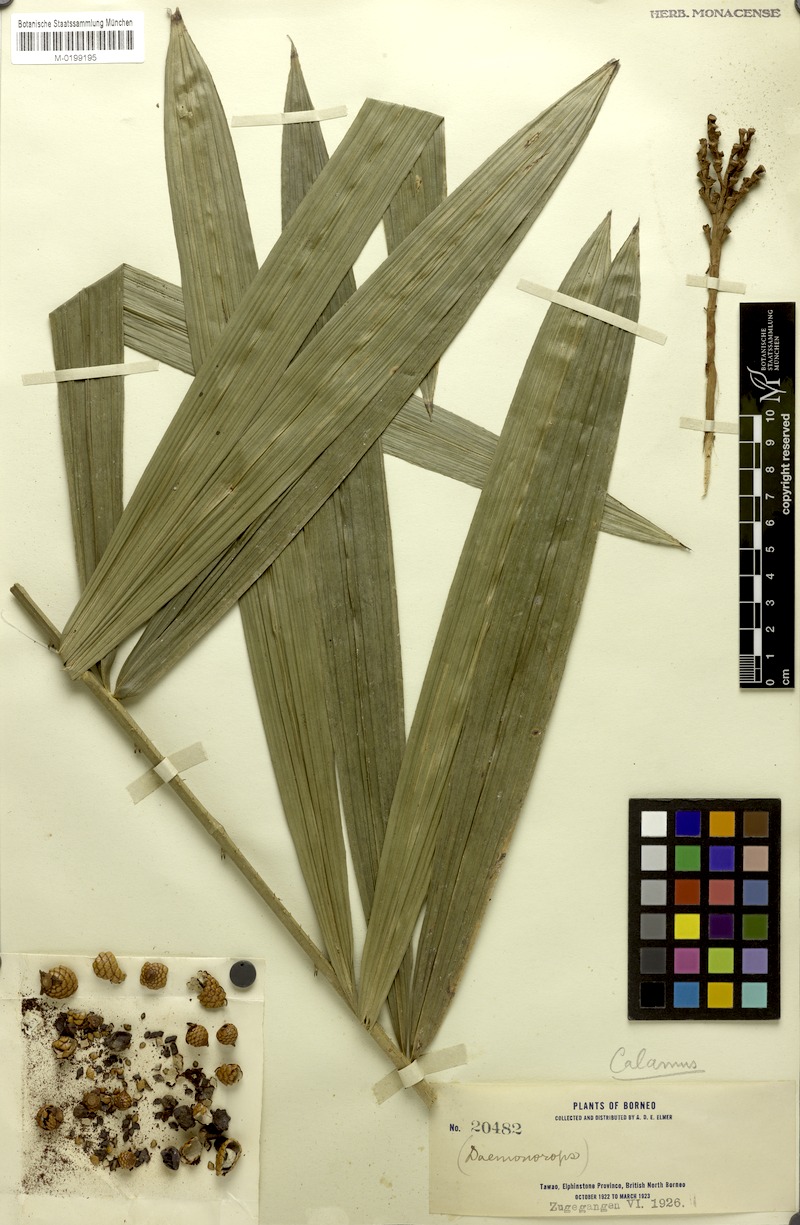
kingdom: Plantae
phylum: Tracheophyta
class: Liliopsida
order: Arecales
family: Arecaceae
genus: Calamus
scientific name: Calamus
